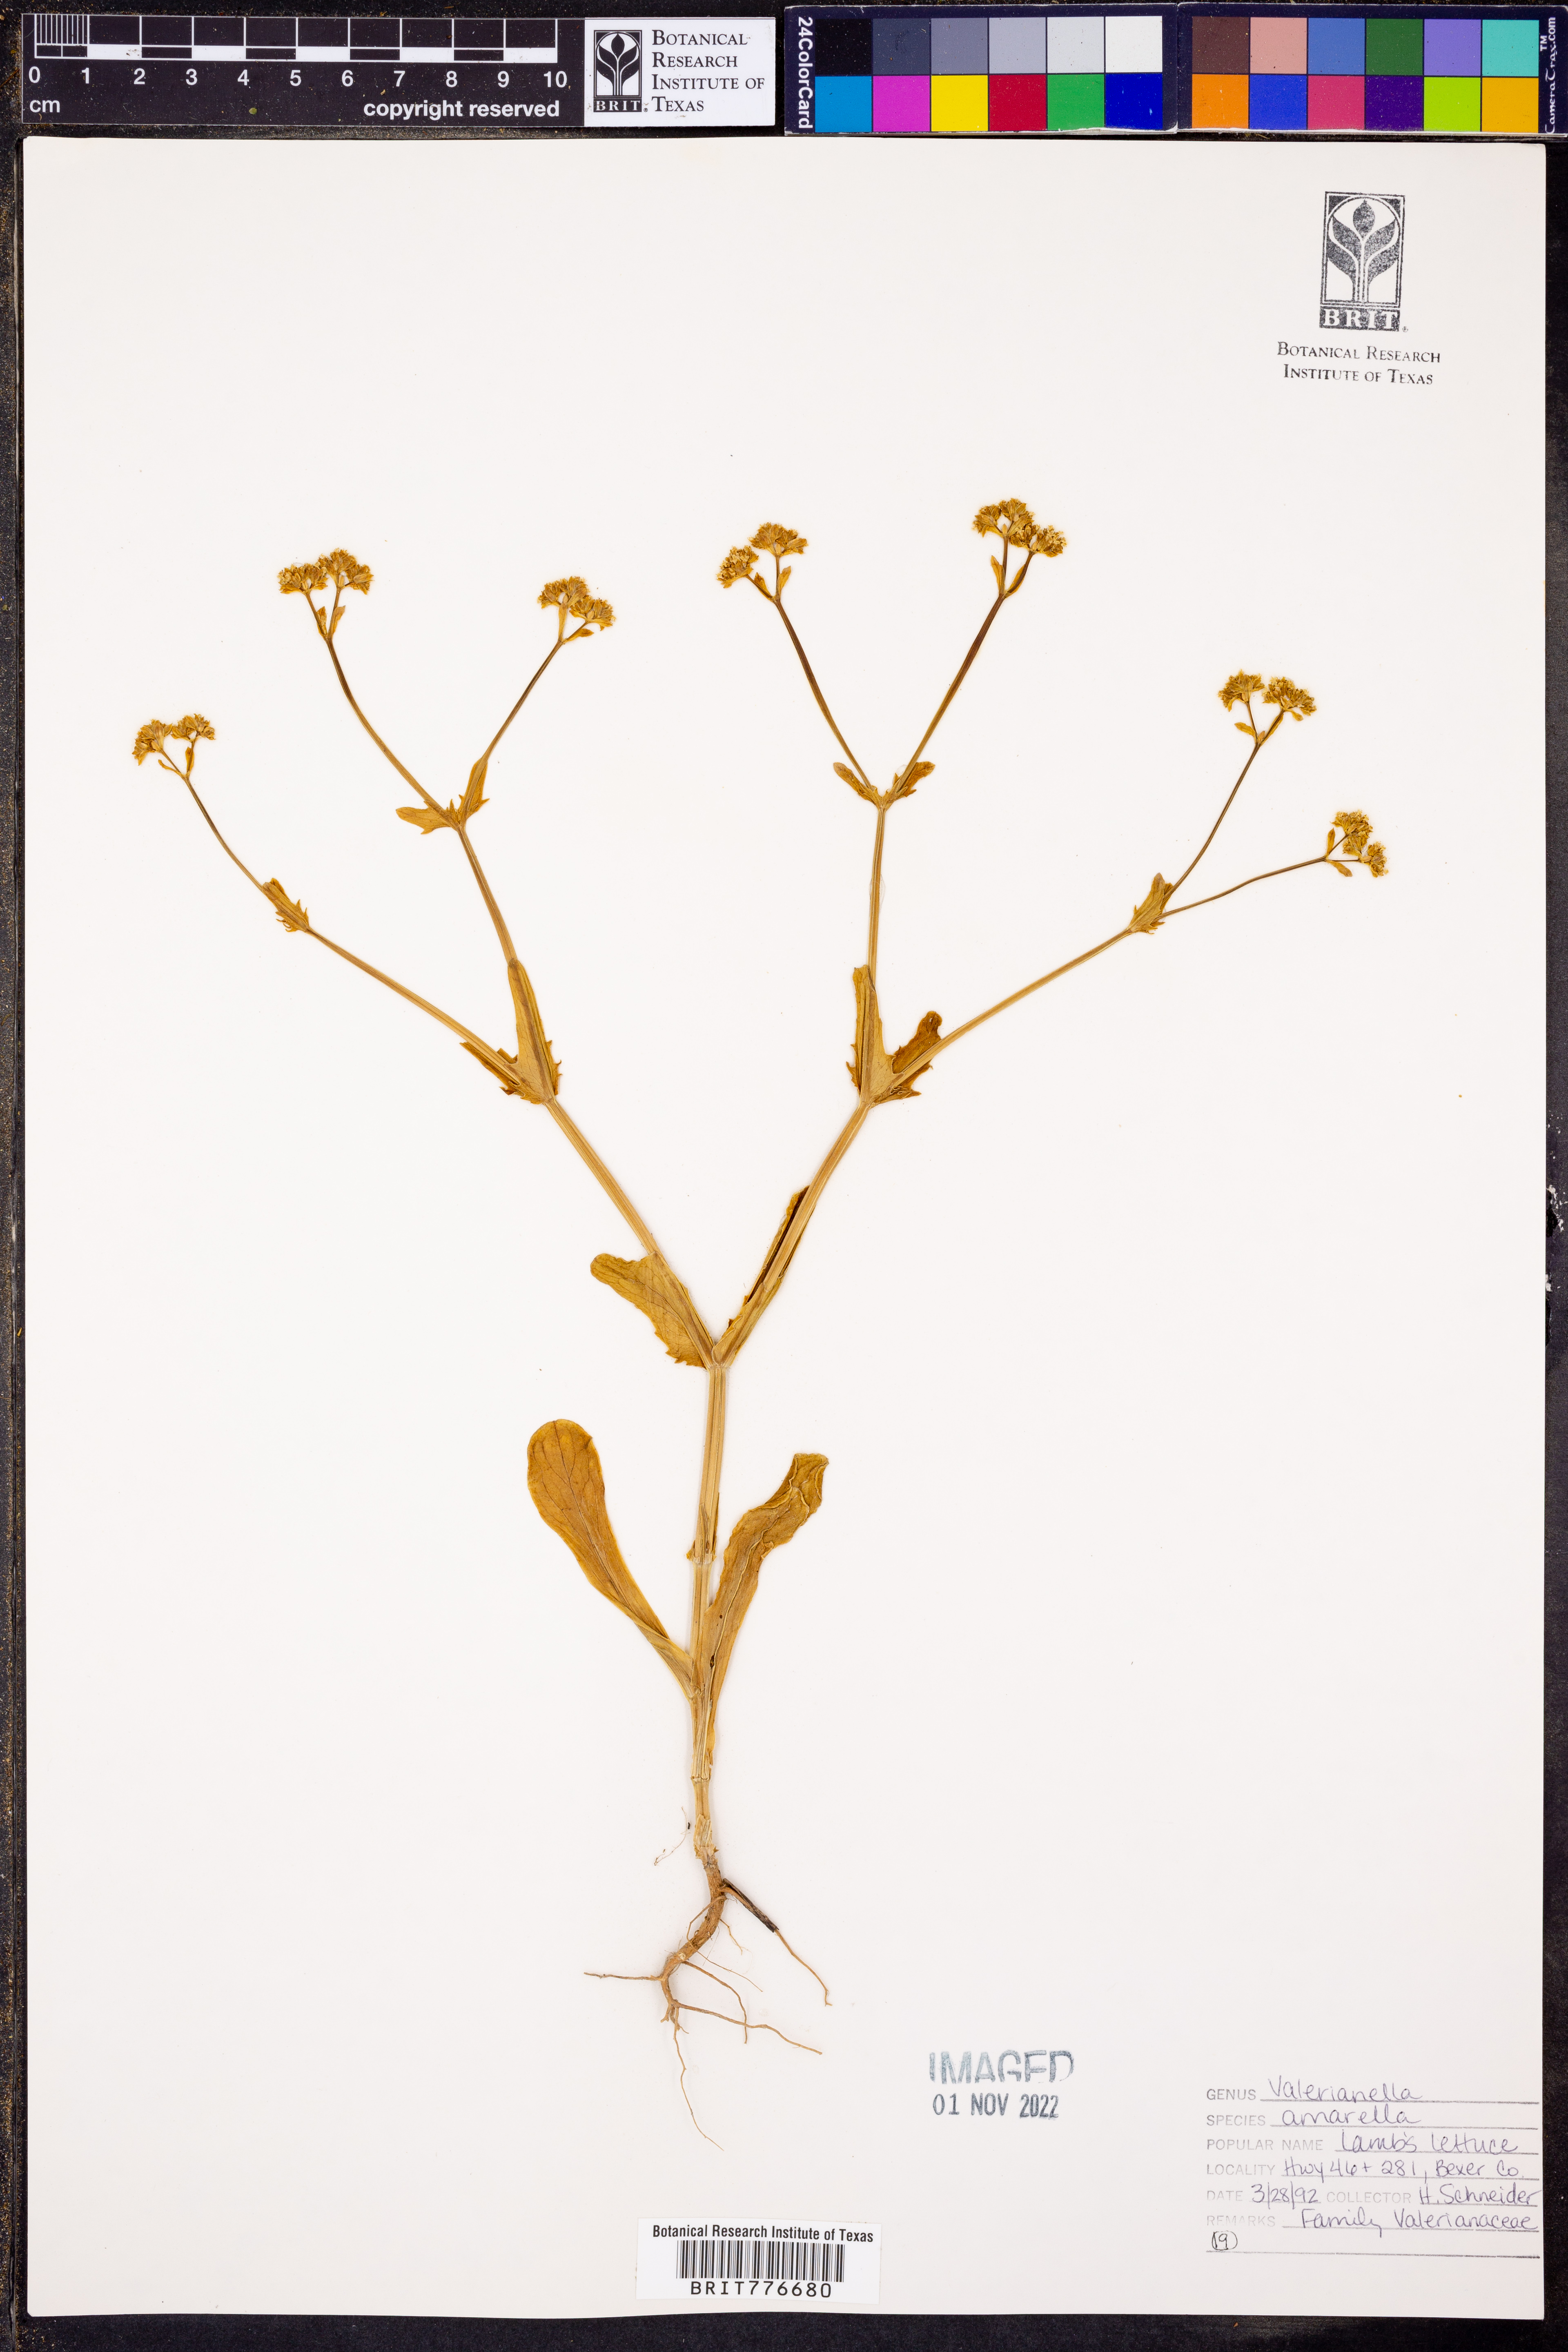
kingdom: Plantae
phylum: Tracheophyta
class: Magnoliopsida
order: Dipsacales
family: Caprifoliaceae
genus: Valerianella
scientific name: Valerianella amarella
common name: Hariy cornsalad
